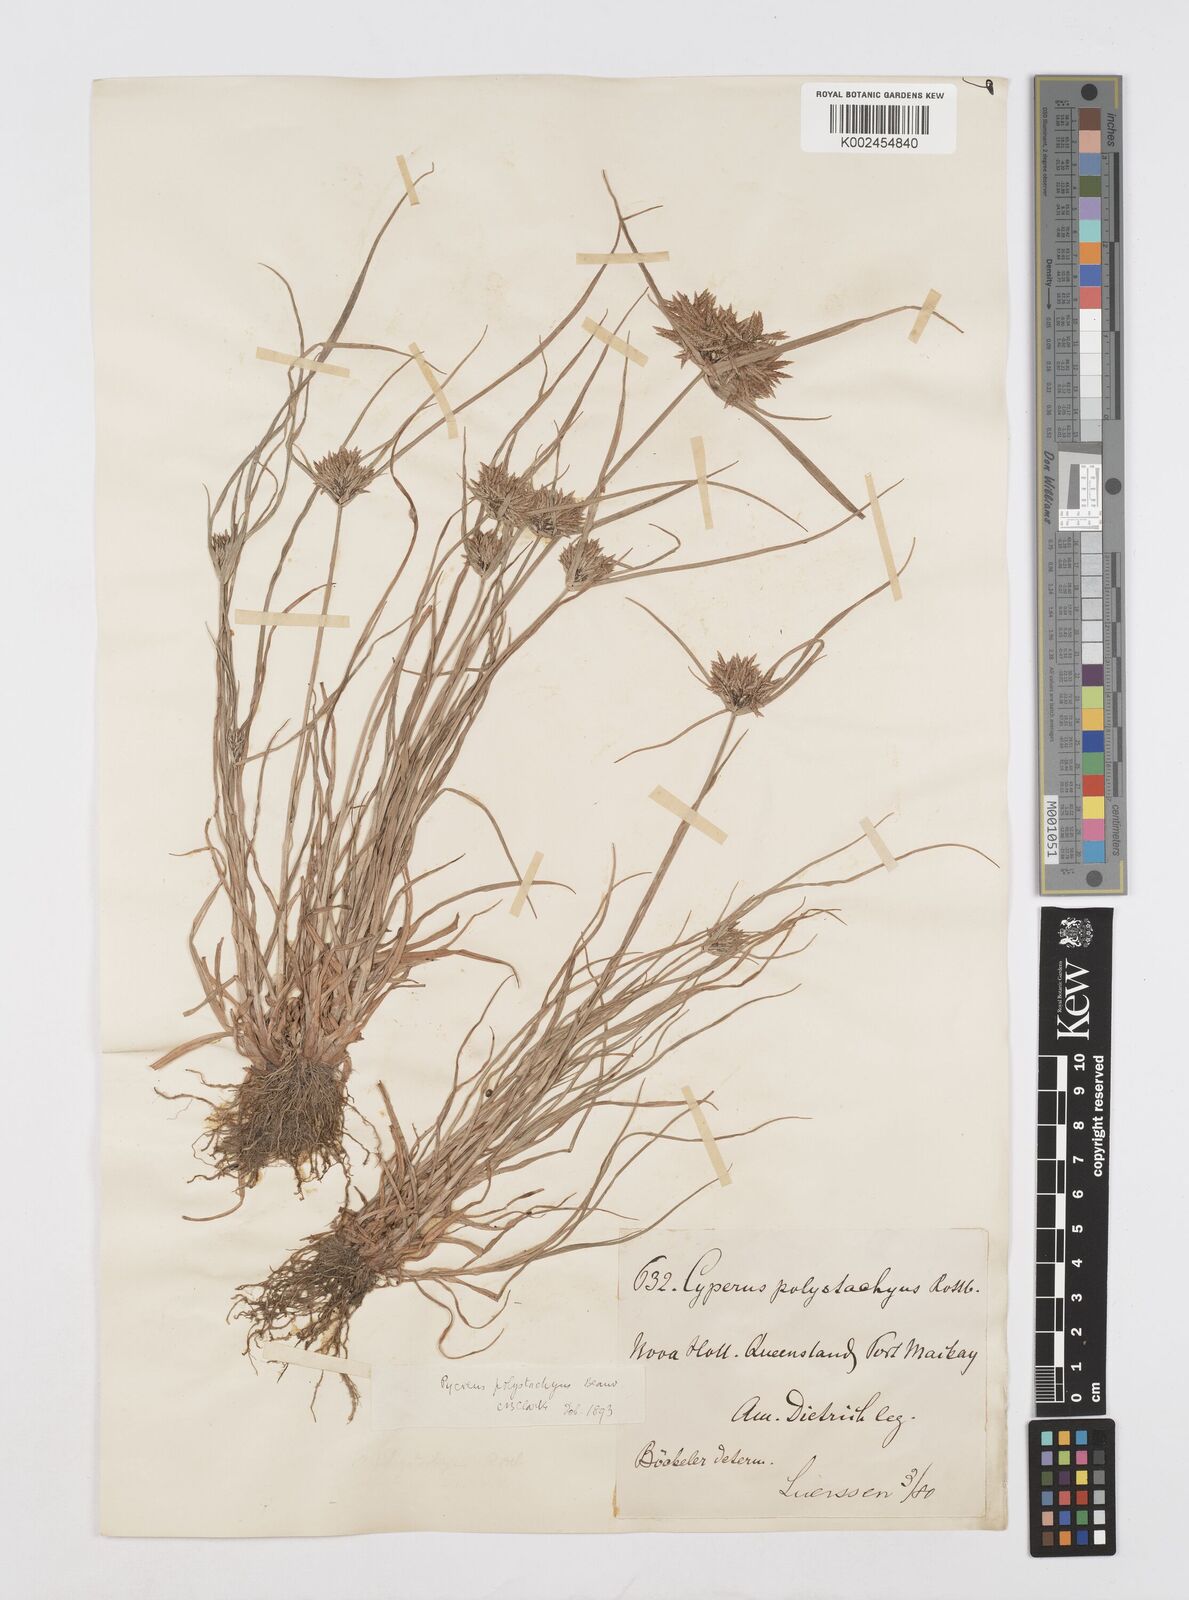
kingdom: Plantae
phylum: Tracheophyta
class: Liliopsida
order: Poales
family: Cyperaceae
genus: Cyperus
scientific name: Cyperus polystachyos
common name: Bunchy flat sedge
